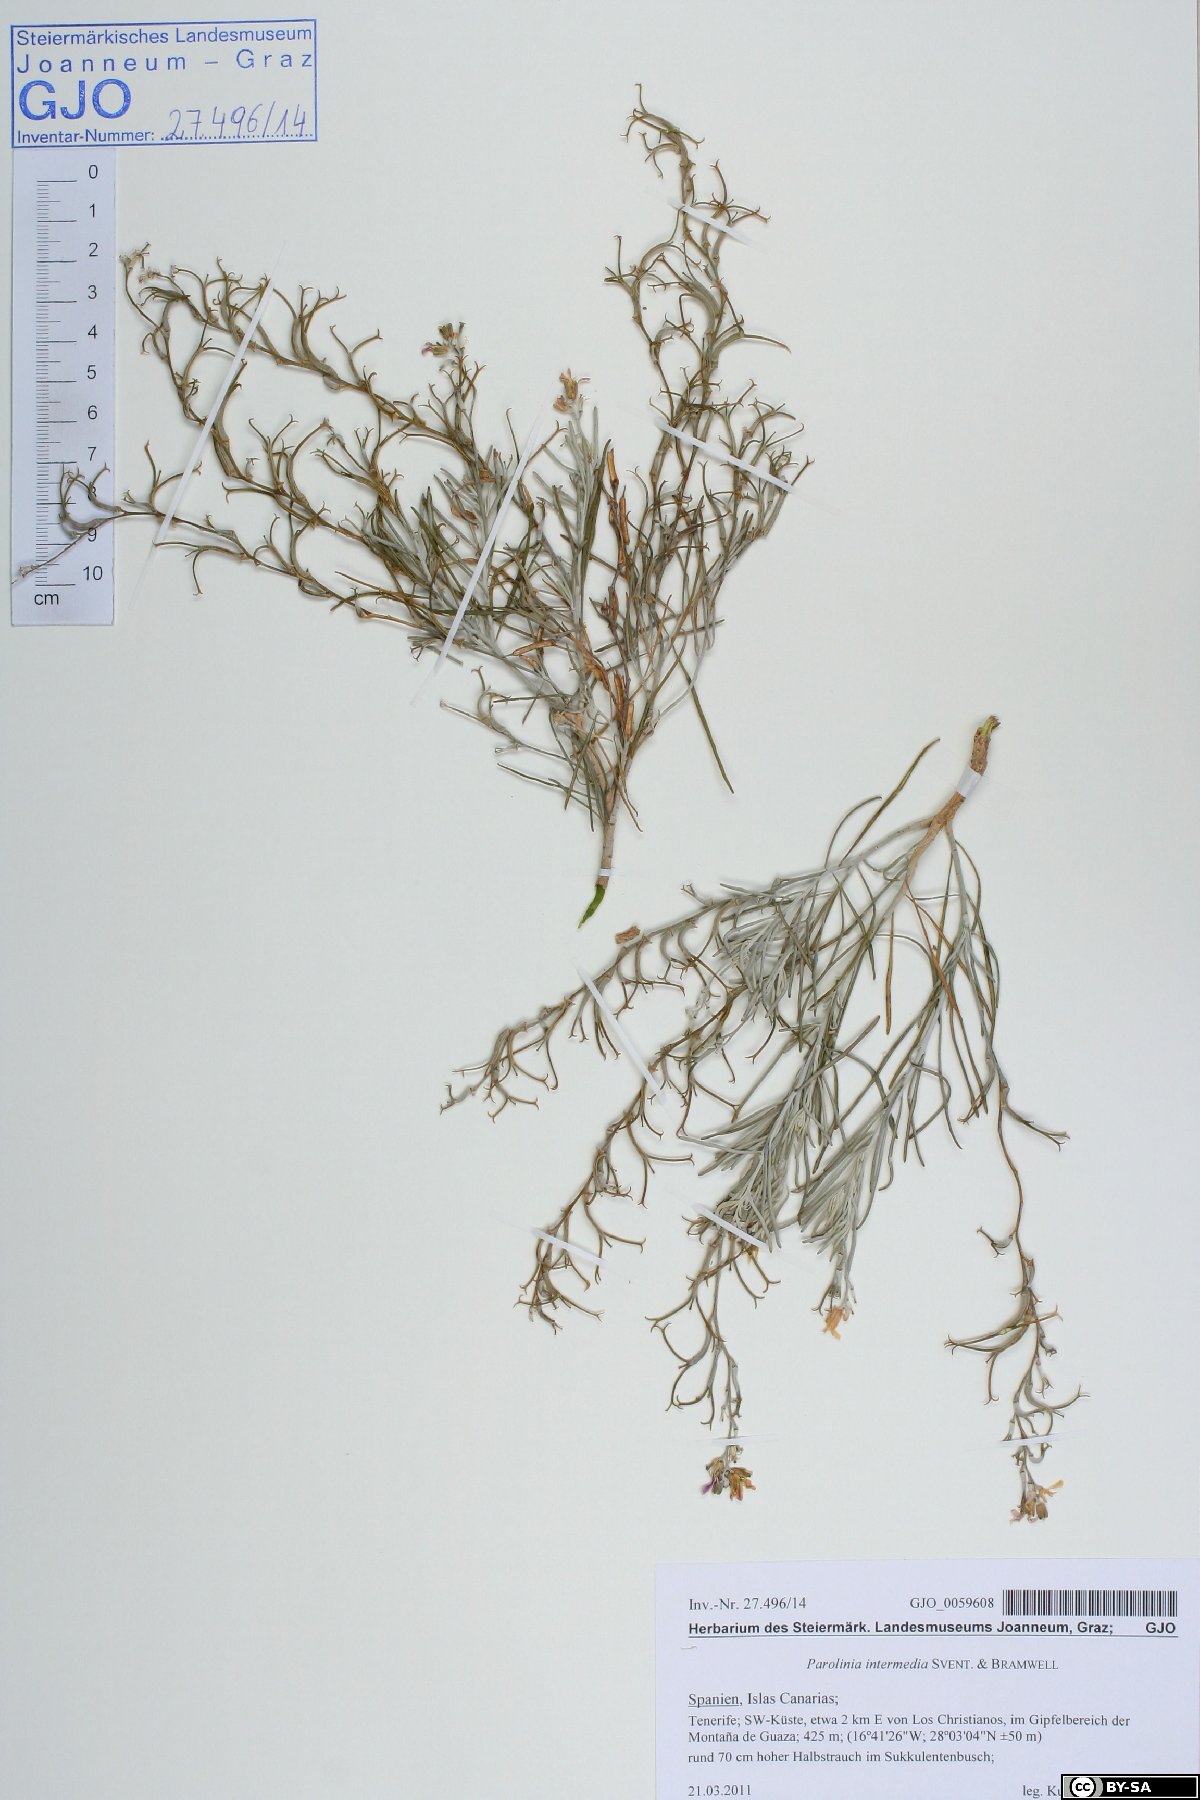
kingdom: Plantae
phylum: Tracheophyta
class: Magnoliopsida
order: Brassicales
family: Brassicaceae
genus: Parolinia
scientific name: Parolinia intermedia
